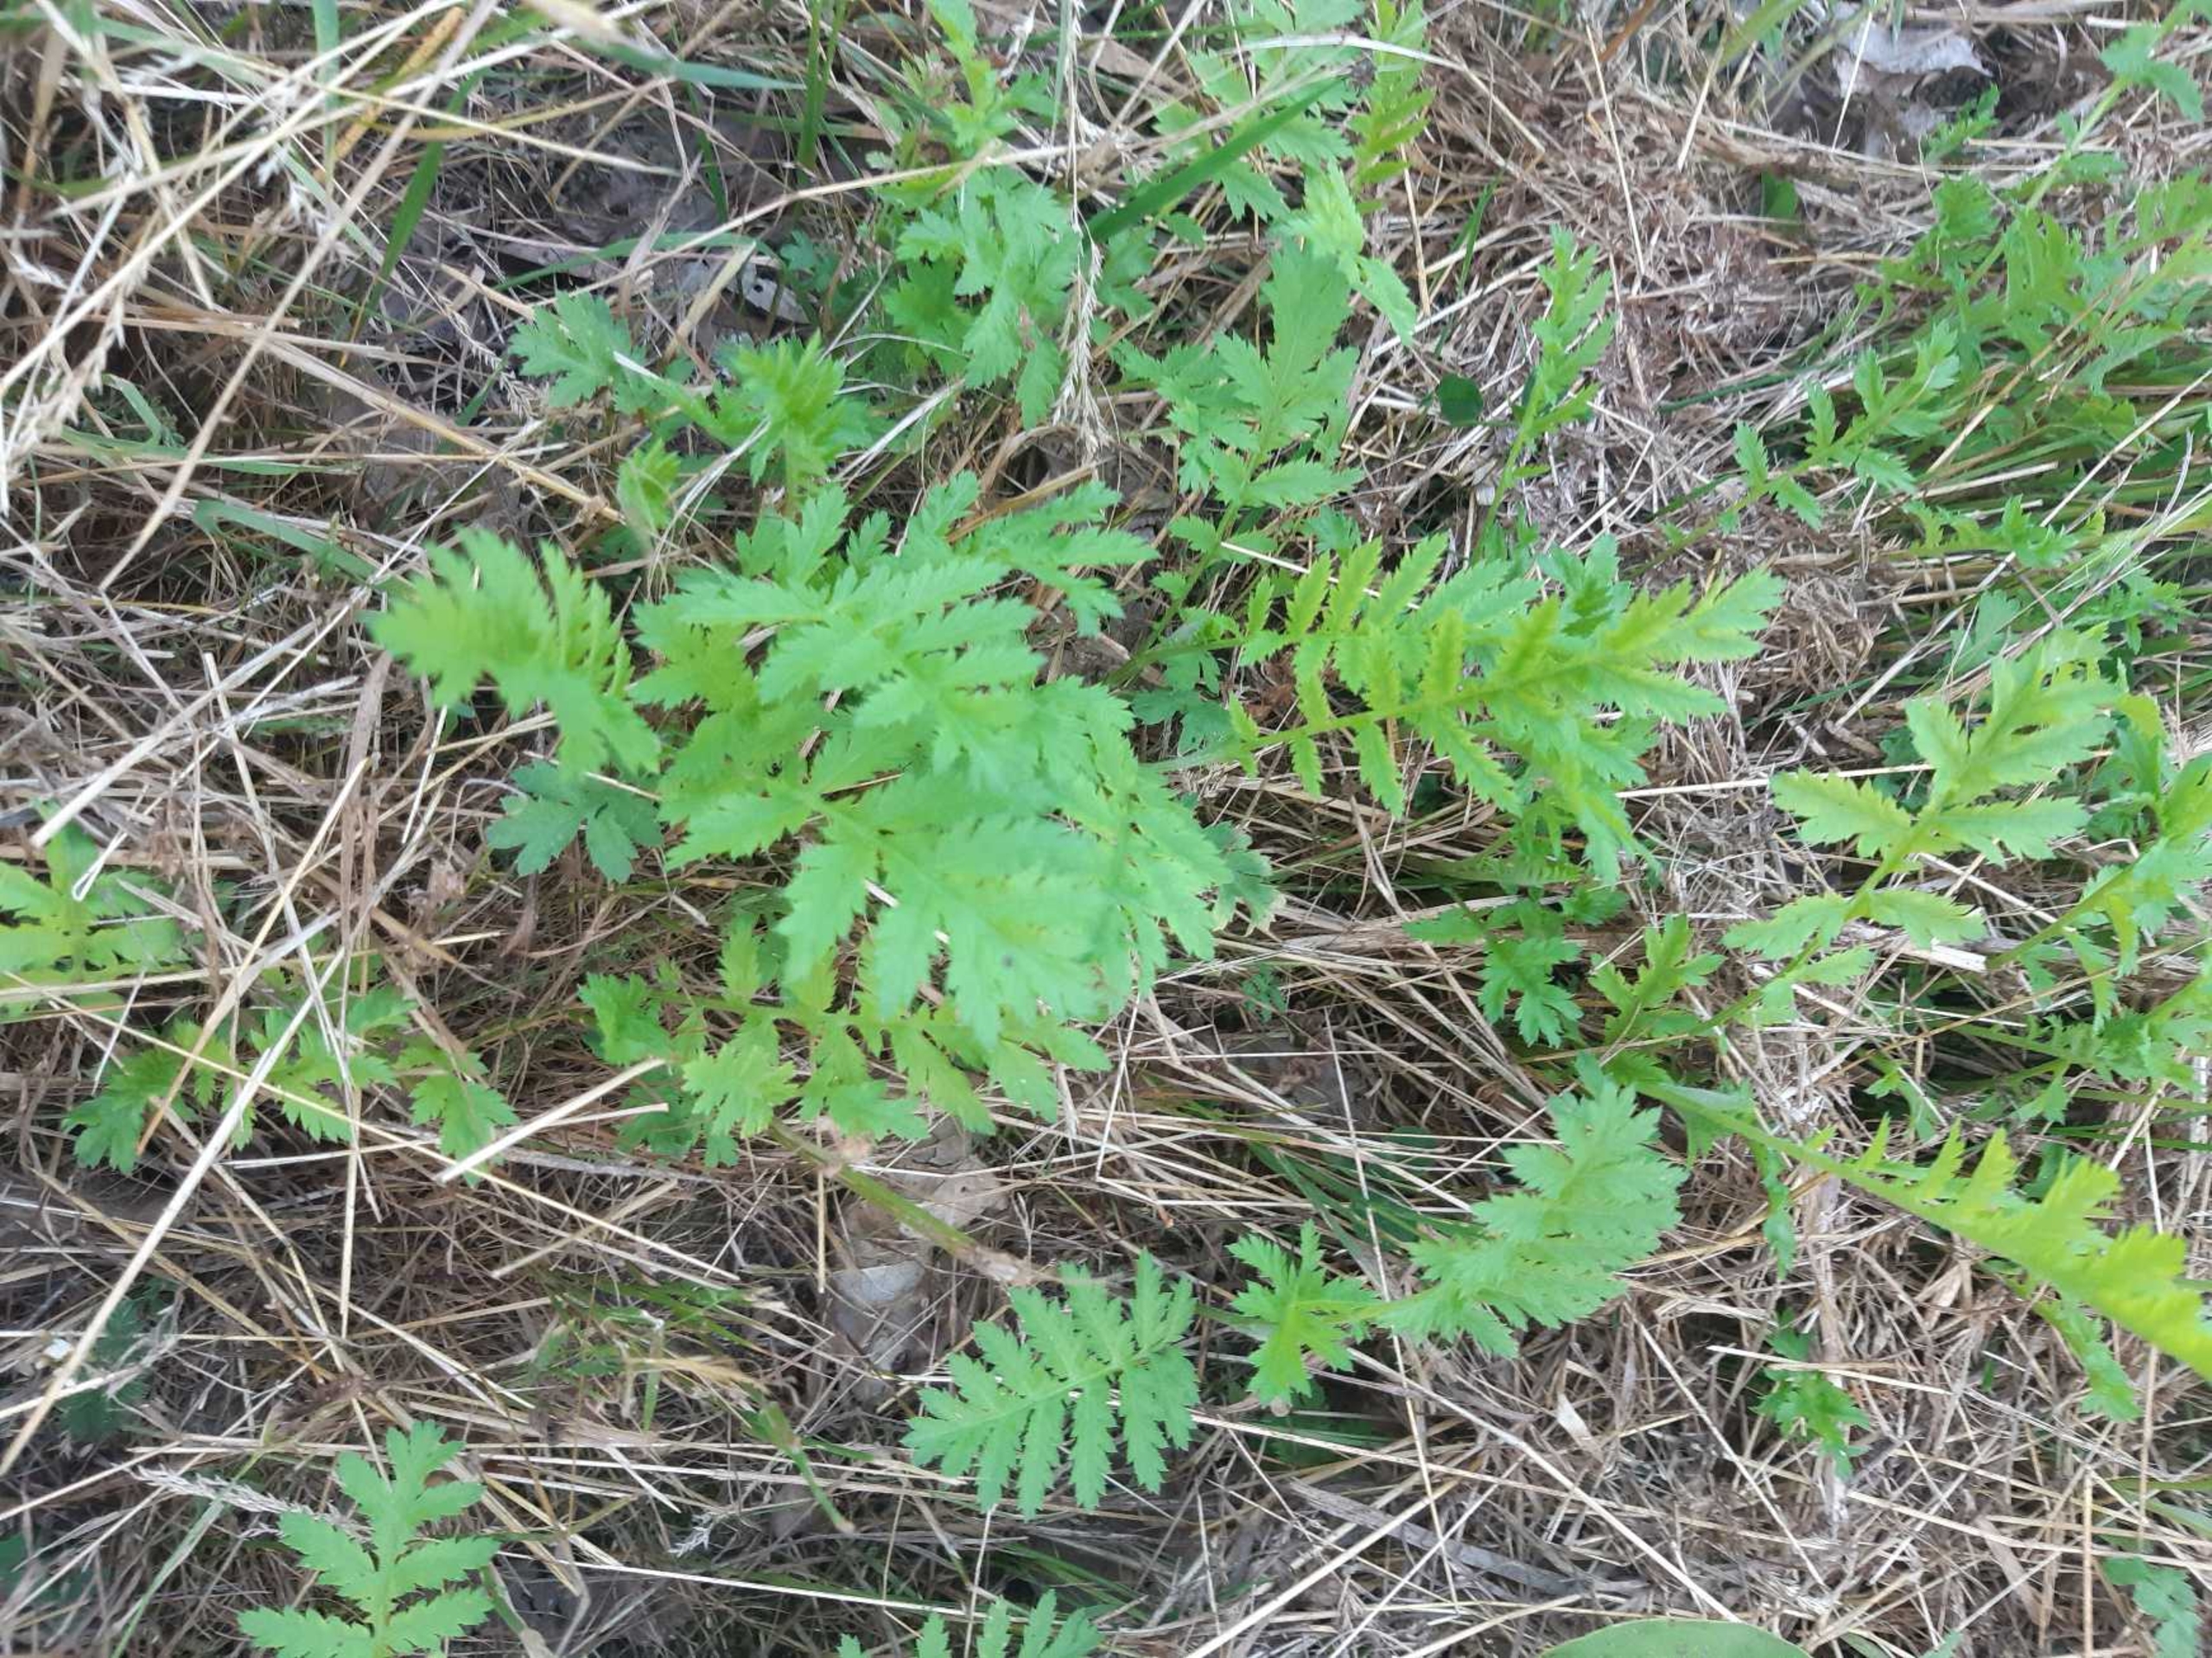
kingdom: Plantae
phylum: Tracheophyta
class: Magnoliopsida
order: Asterales
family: Asteraceae
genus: Tanacetum
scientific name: Tanacetum vulgare
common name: Rejnfan
